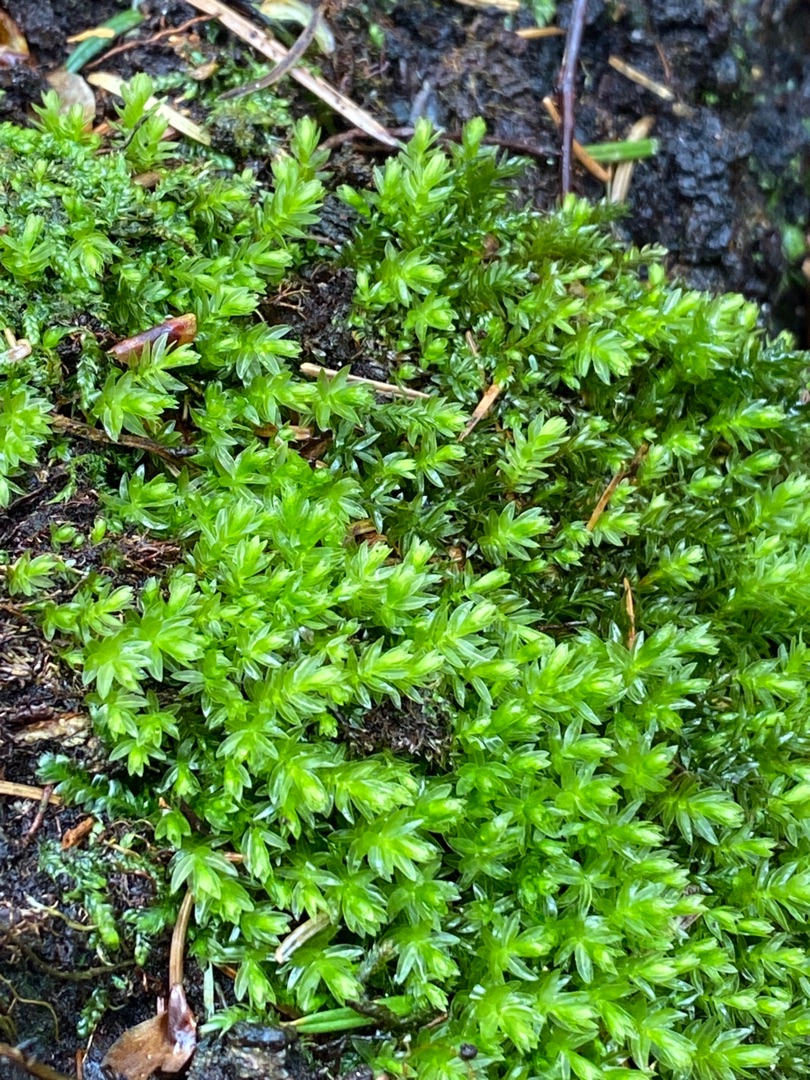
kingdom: Plantae
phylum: Bryophyta
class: Bryopsida
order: Bryales
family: Mniaceae
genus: Mnium
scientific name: Mnium hornum
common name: Brunfiltet stjernemos
